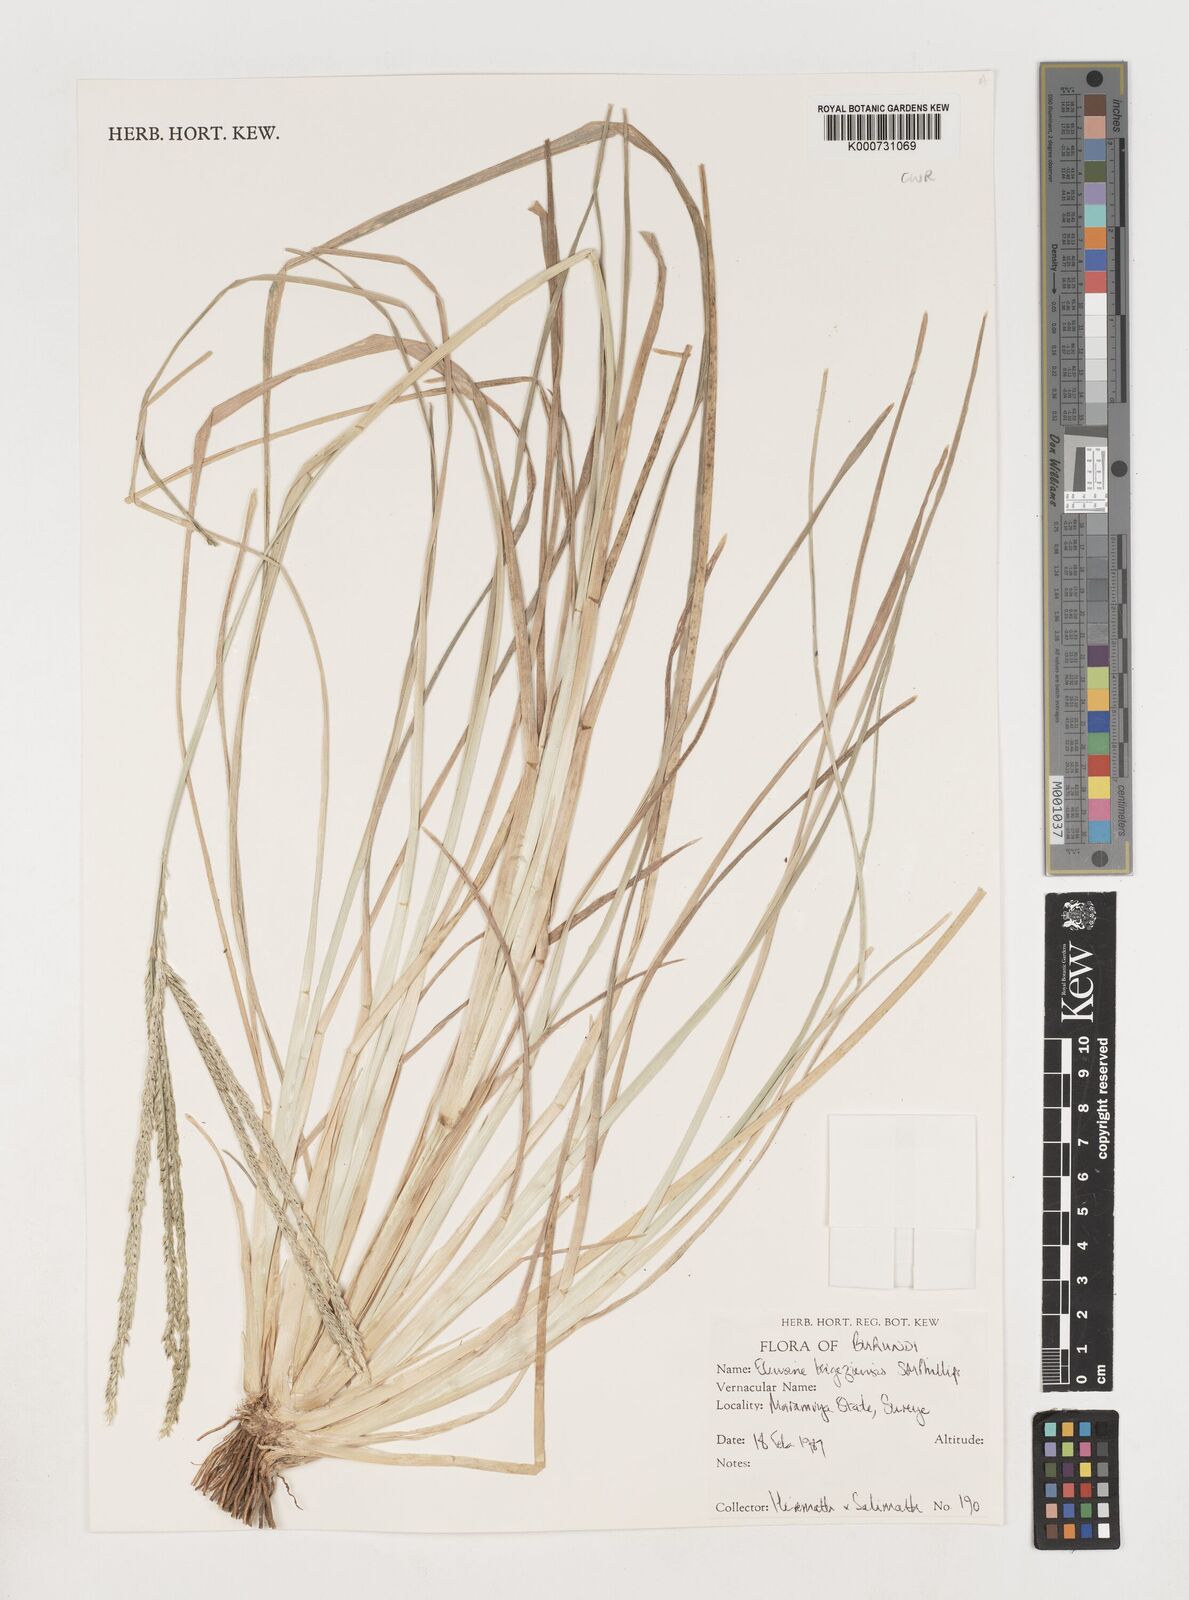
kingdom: Plantae
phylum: Tracheophyta
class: Liliopsida
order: Poales
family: Poaceae
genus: Eleusine
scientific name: Eleusine kigeziensis
